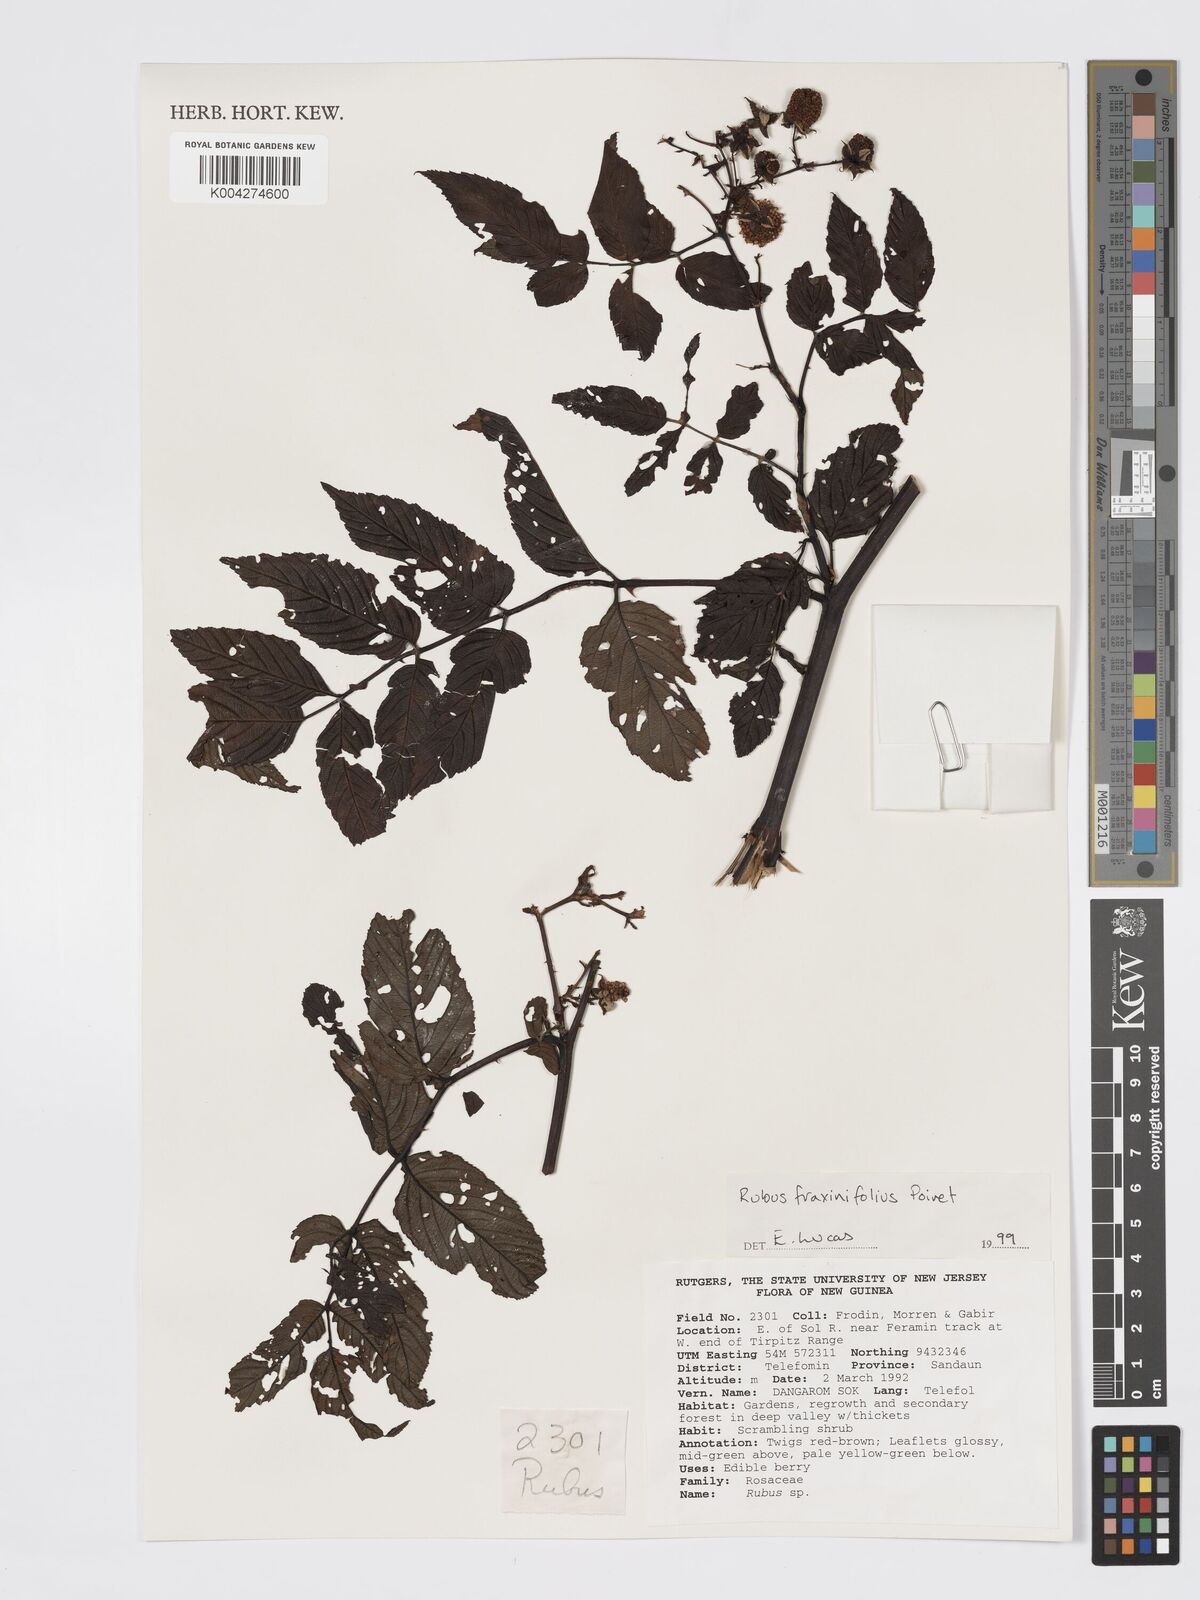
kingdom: Plantae
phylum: Tracheophyta
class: Magnoliopsida
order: Rosales
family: Rosaceae
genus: Rubus
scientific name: Rubus fraxinifolius
